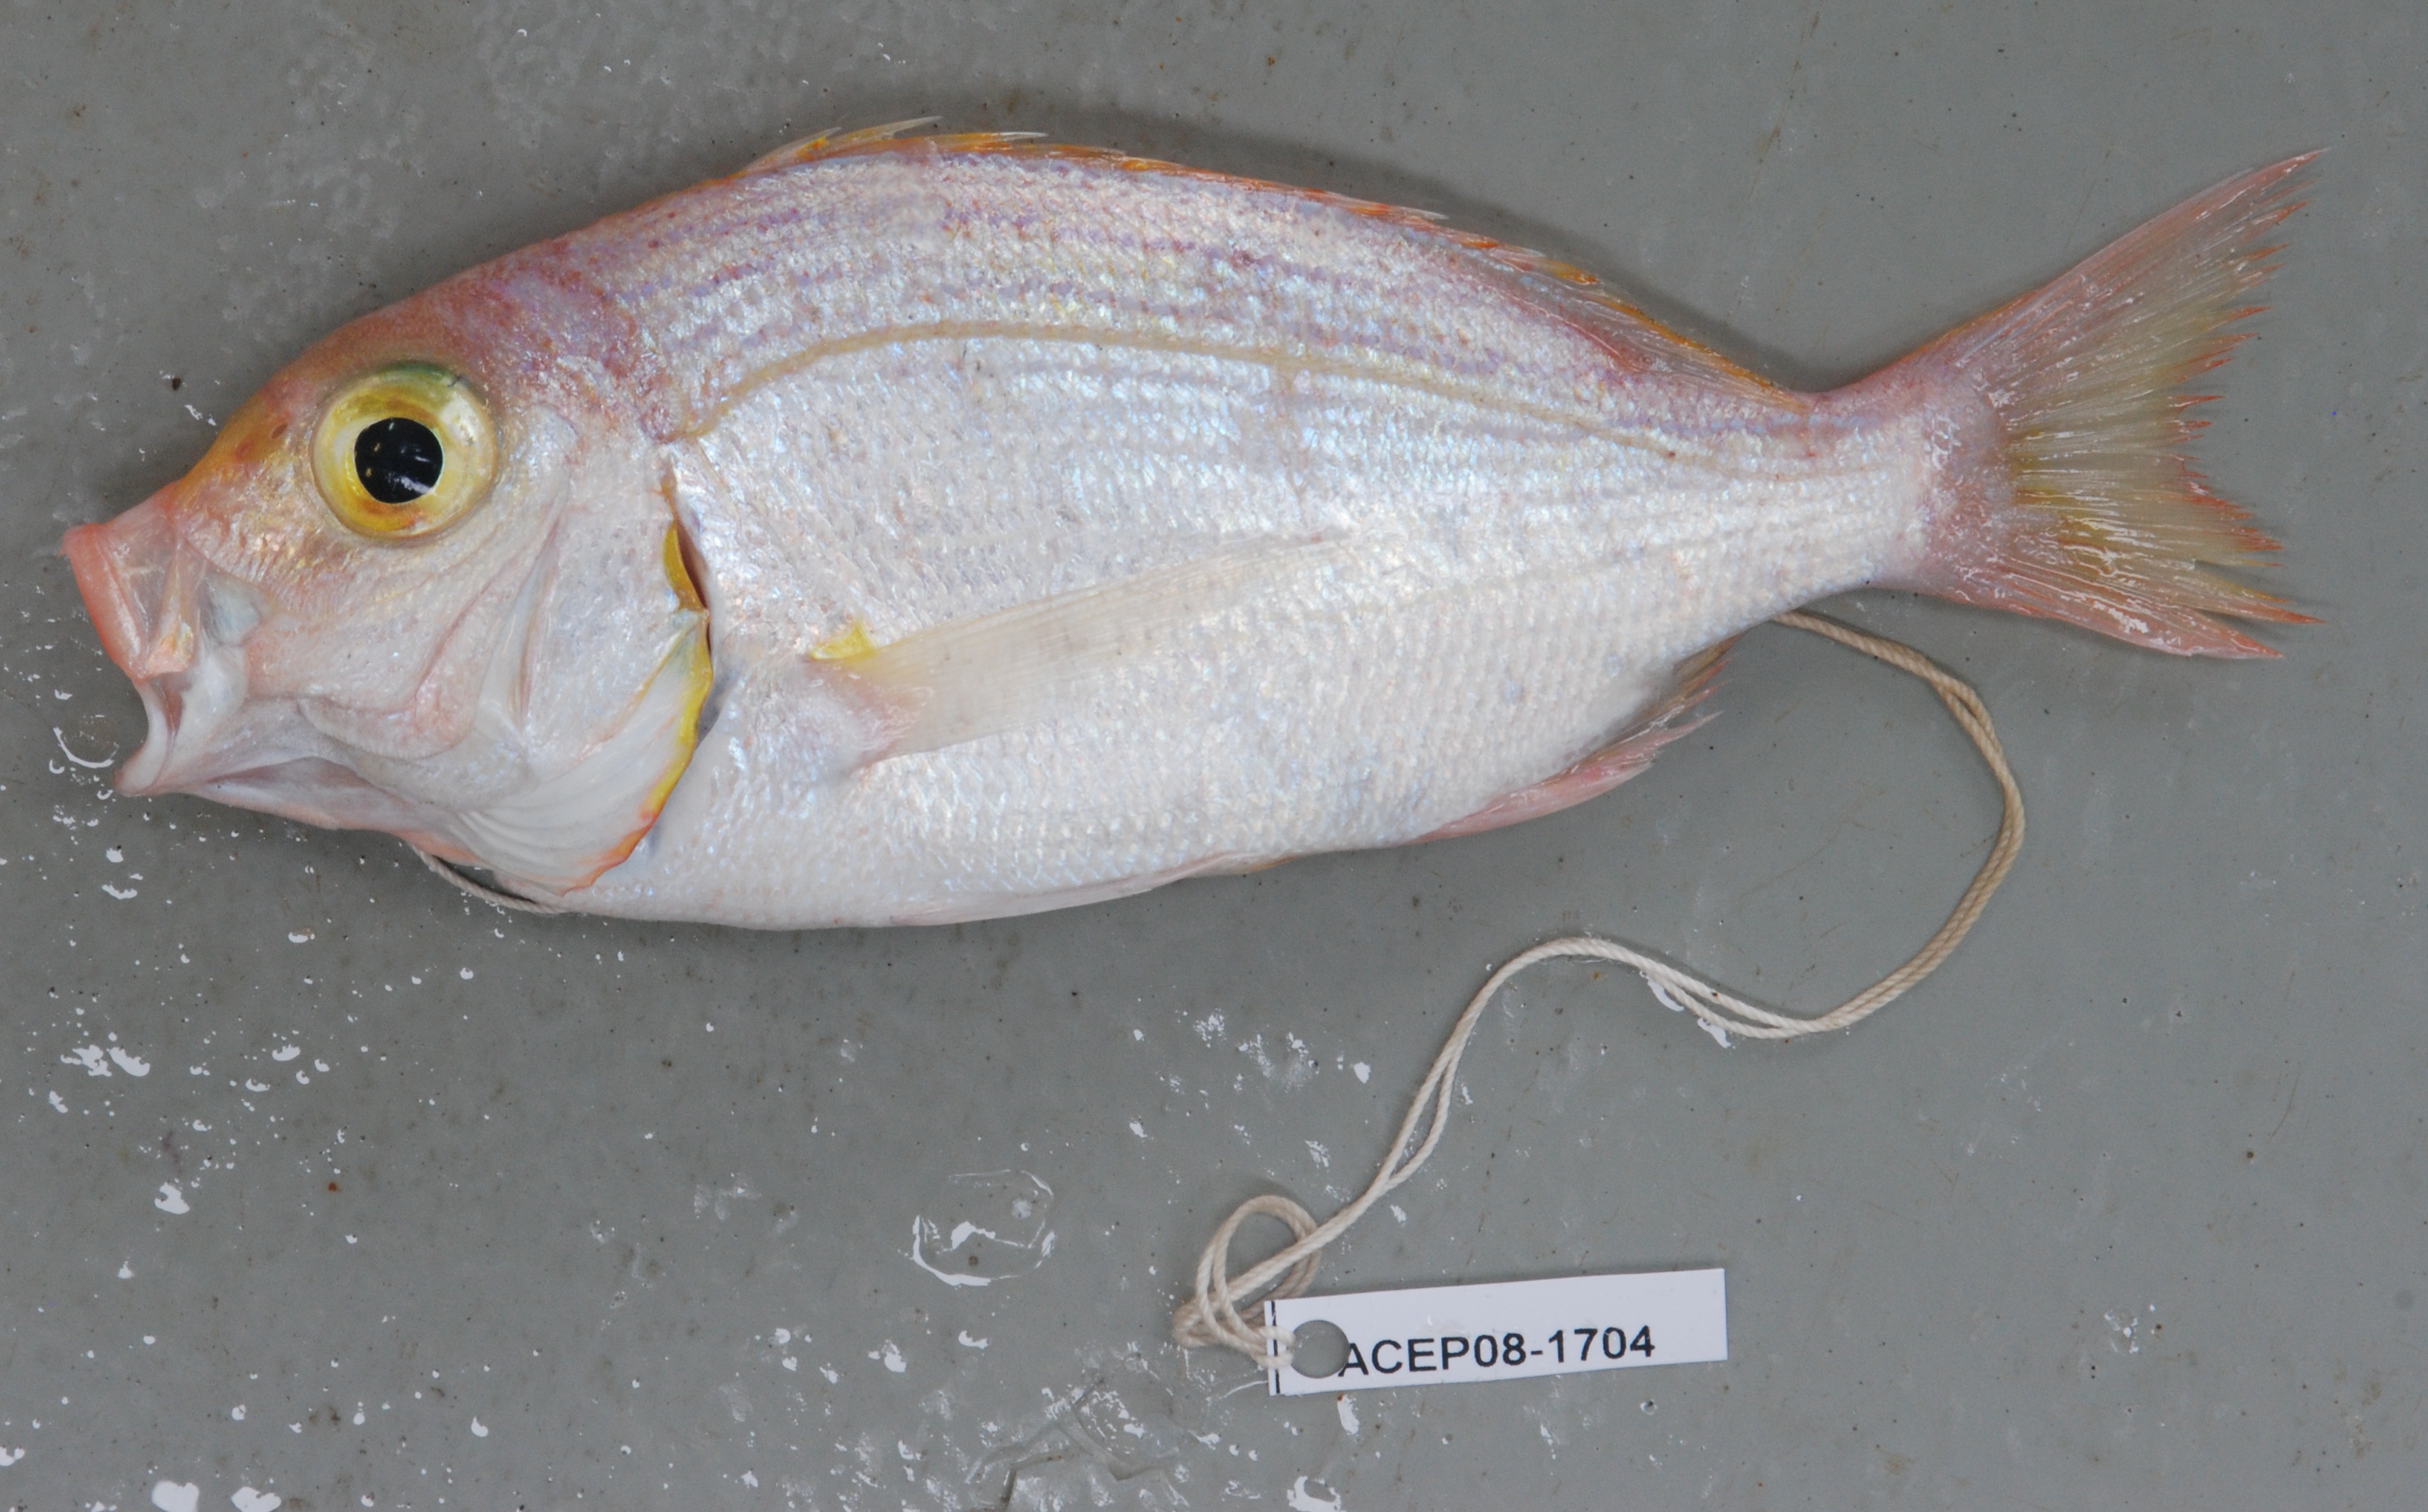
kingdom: Animalia
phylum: Chordata
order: Perciformes
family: Sparidae
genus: Polysteganus
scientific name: Polysteganus cerasinus
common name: Cherry seabream
